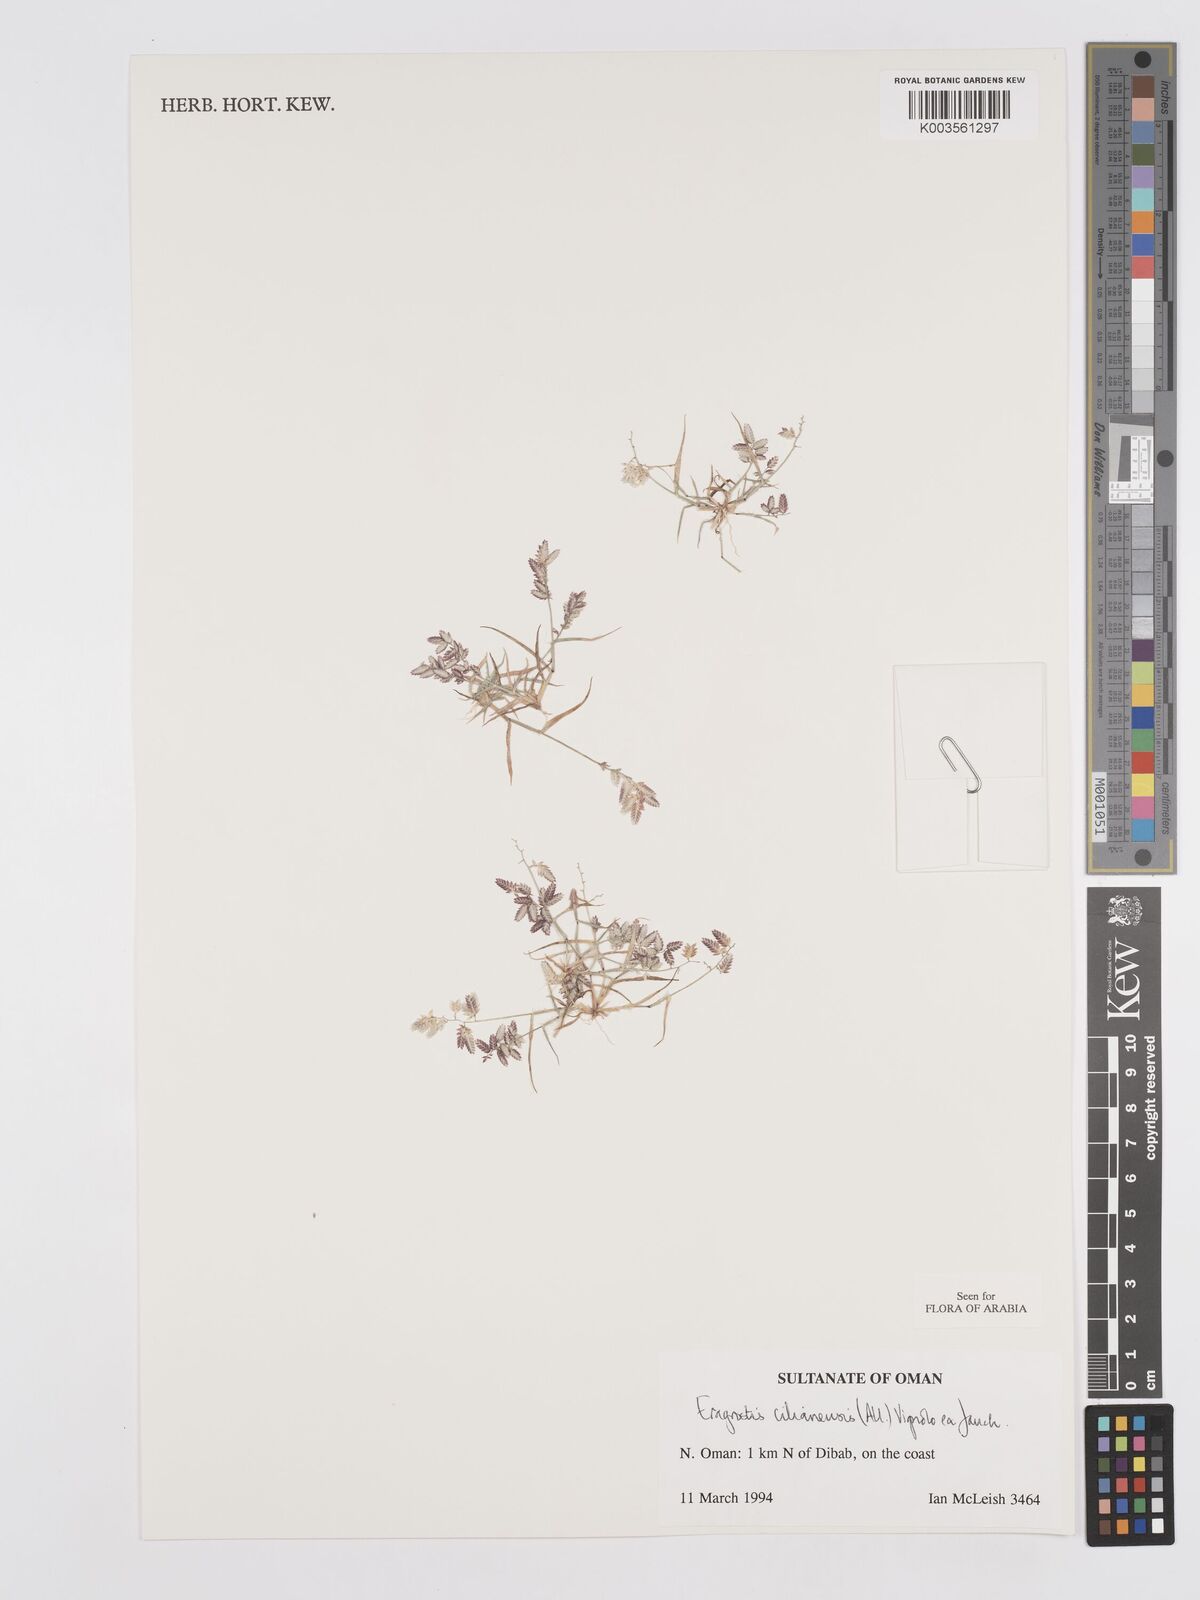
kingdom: Plantae
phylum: Tracheophyta
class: Liliopsida
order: Poales
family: Poaceae
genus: Eragrostis
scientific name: Eragrostis cilianensis
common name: Stinkgrass
